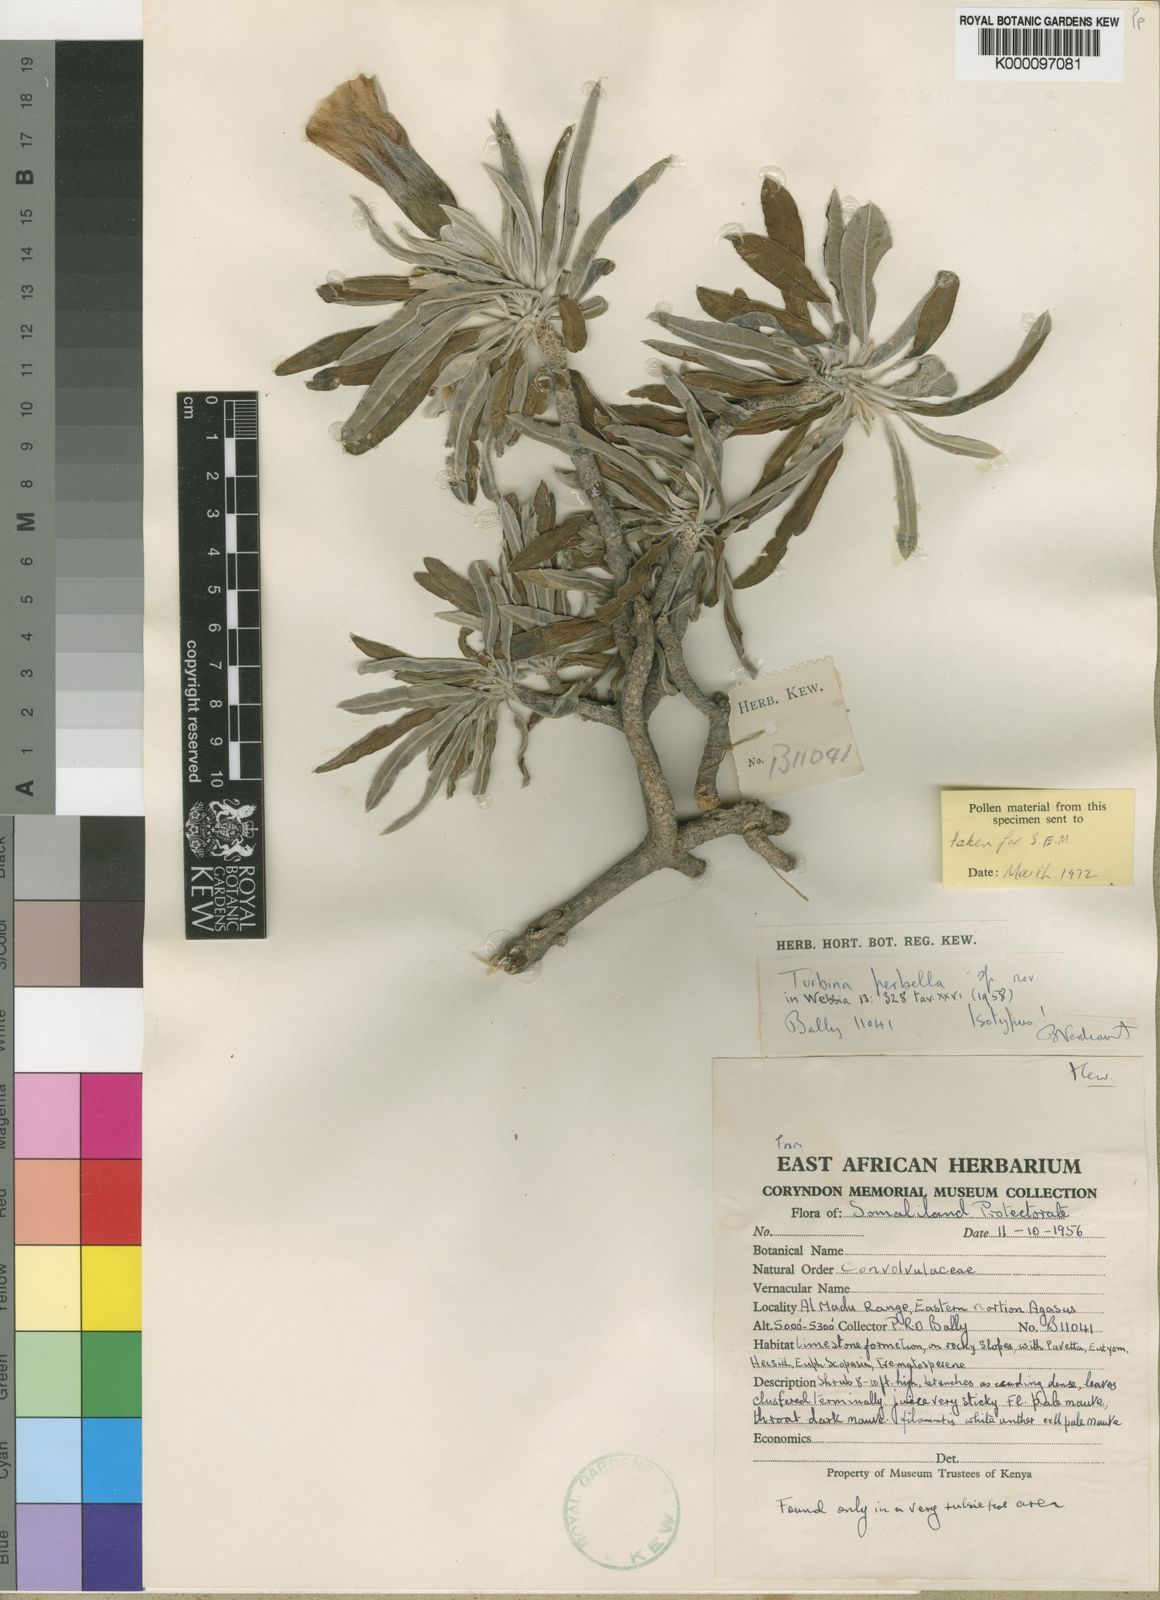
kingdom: Plantae
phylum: Tracheophyta
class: Magnoliopsida
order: Solanales
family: Convolvulaceae
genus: Ipomoea
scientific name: Ipomoea perbella
